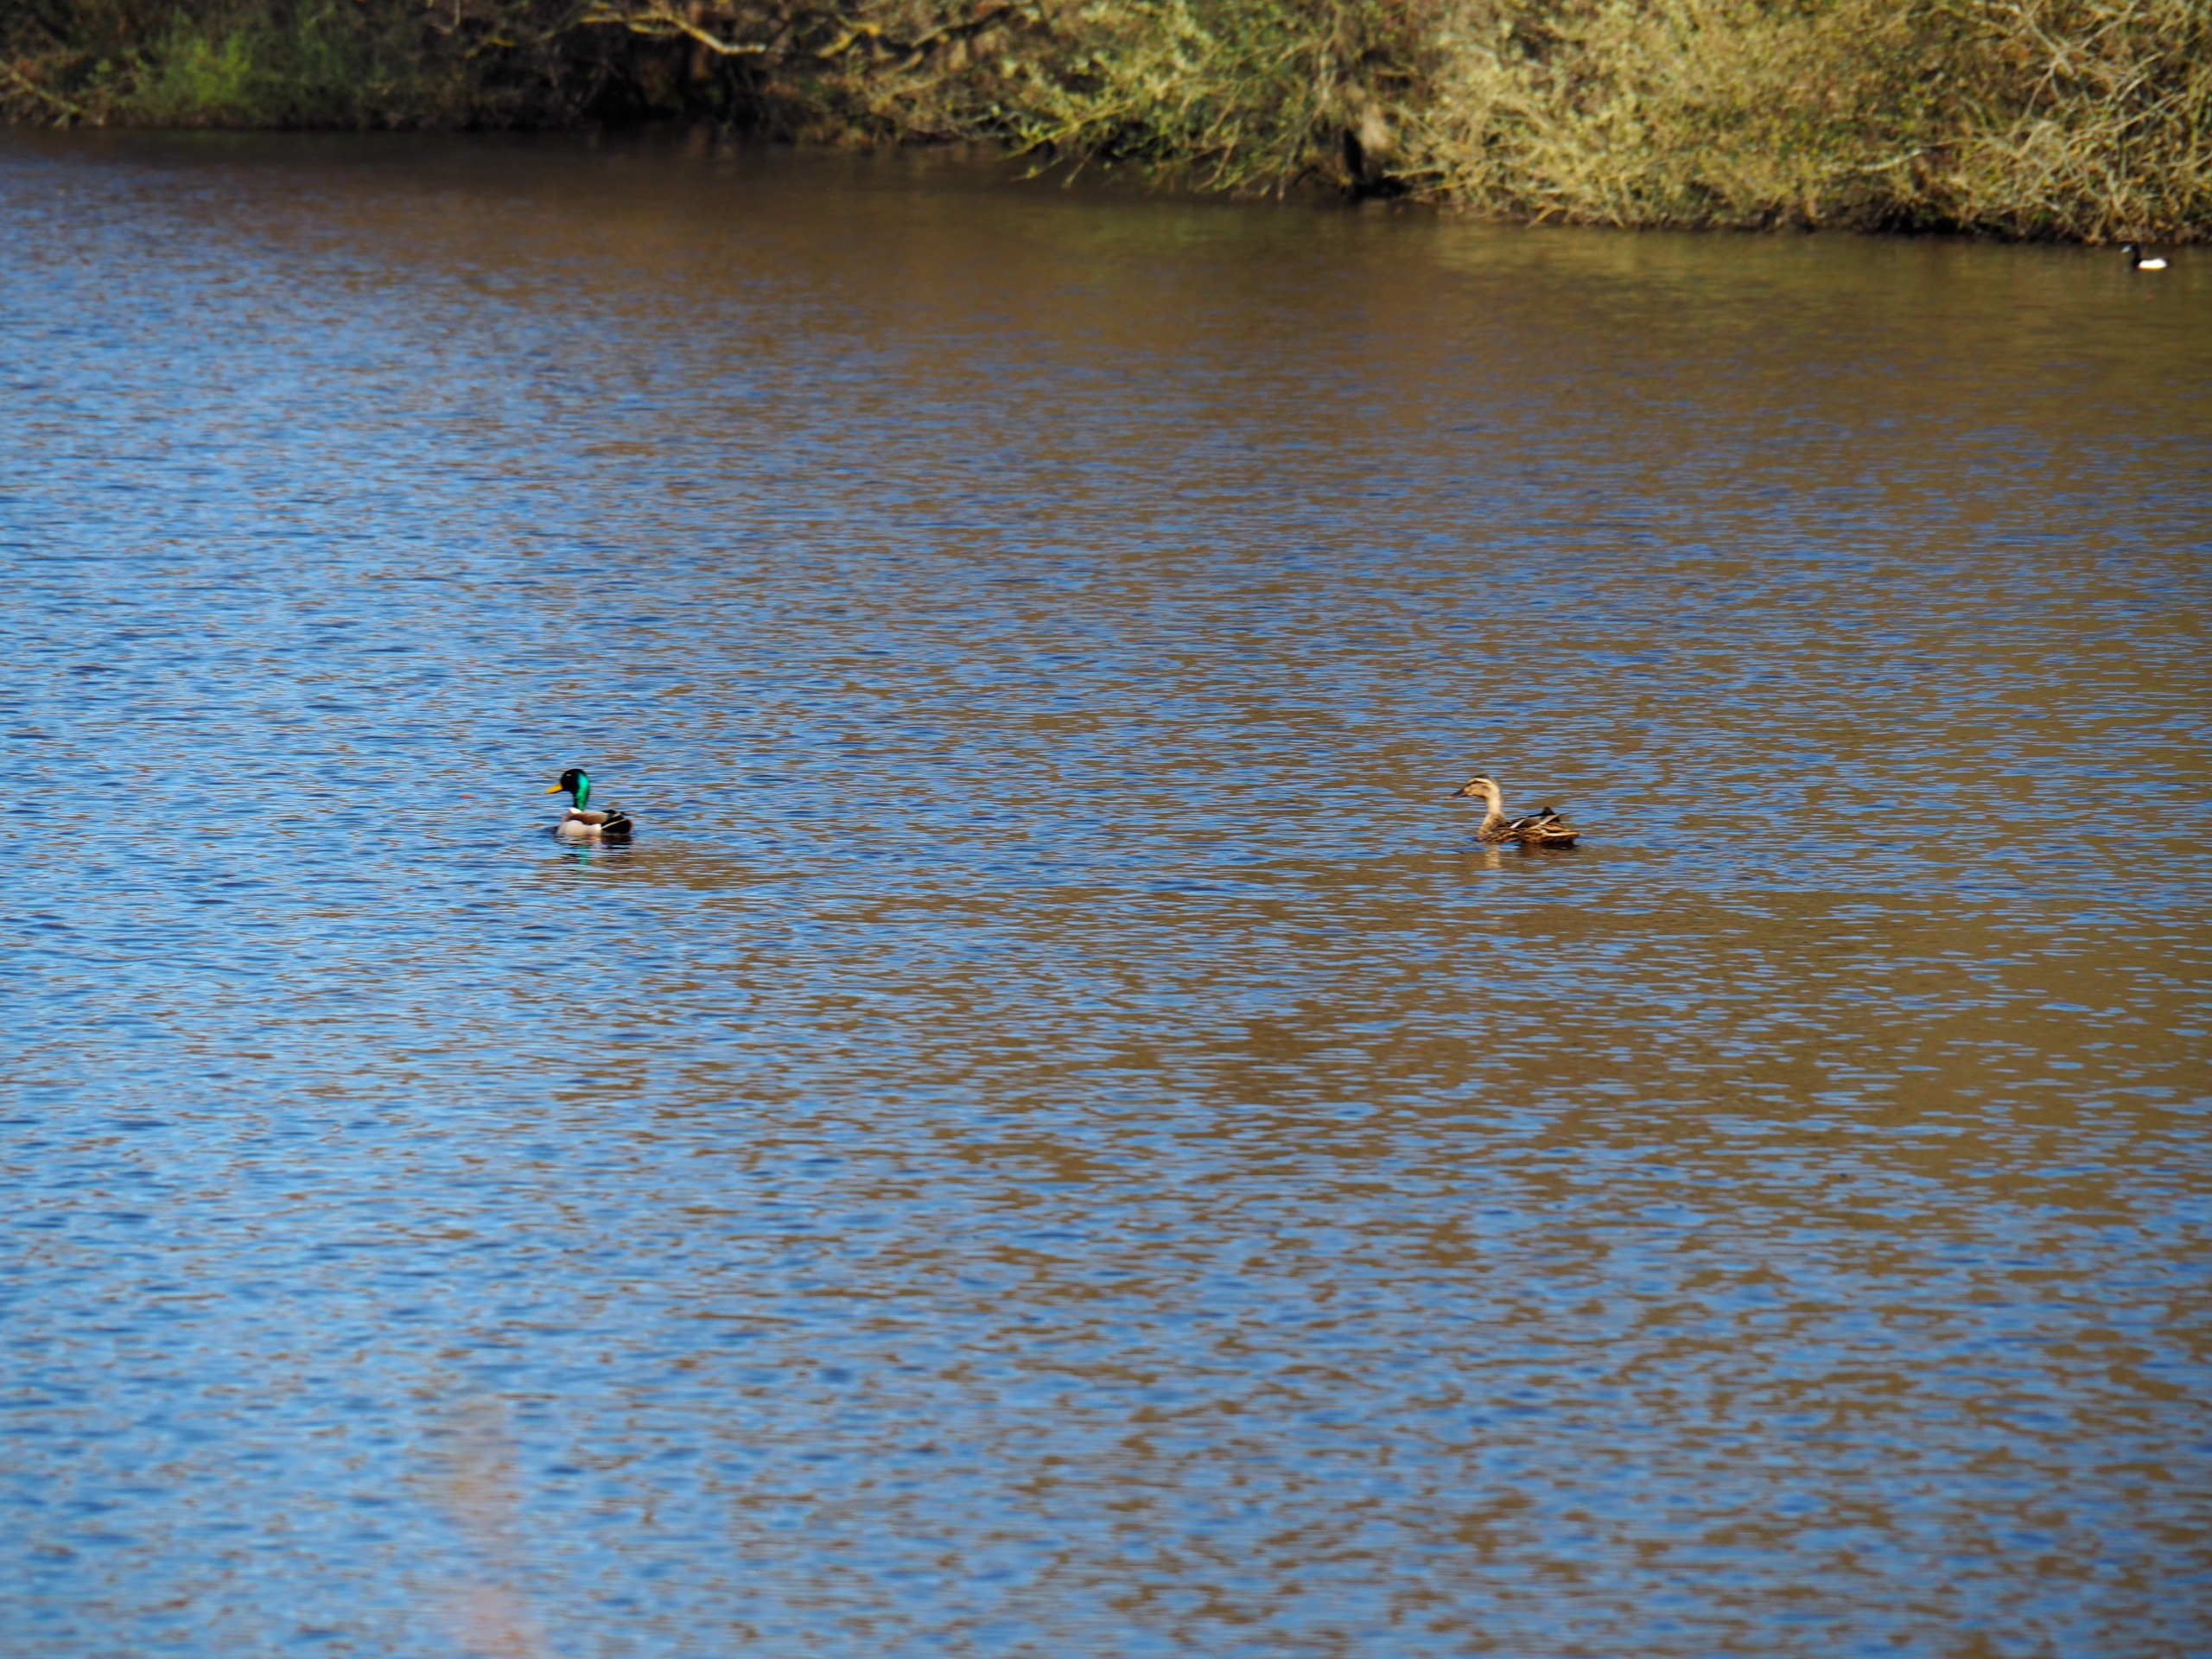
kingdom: Animalia
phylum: Chordata
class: Aves
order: Anseriformes
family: Anatidae
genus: Anas
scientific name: Anas platyrhynchos
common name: Gråand
